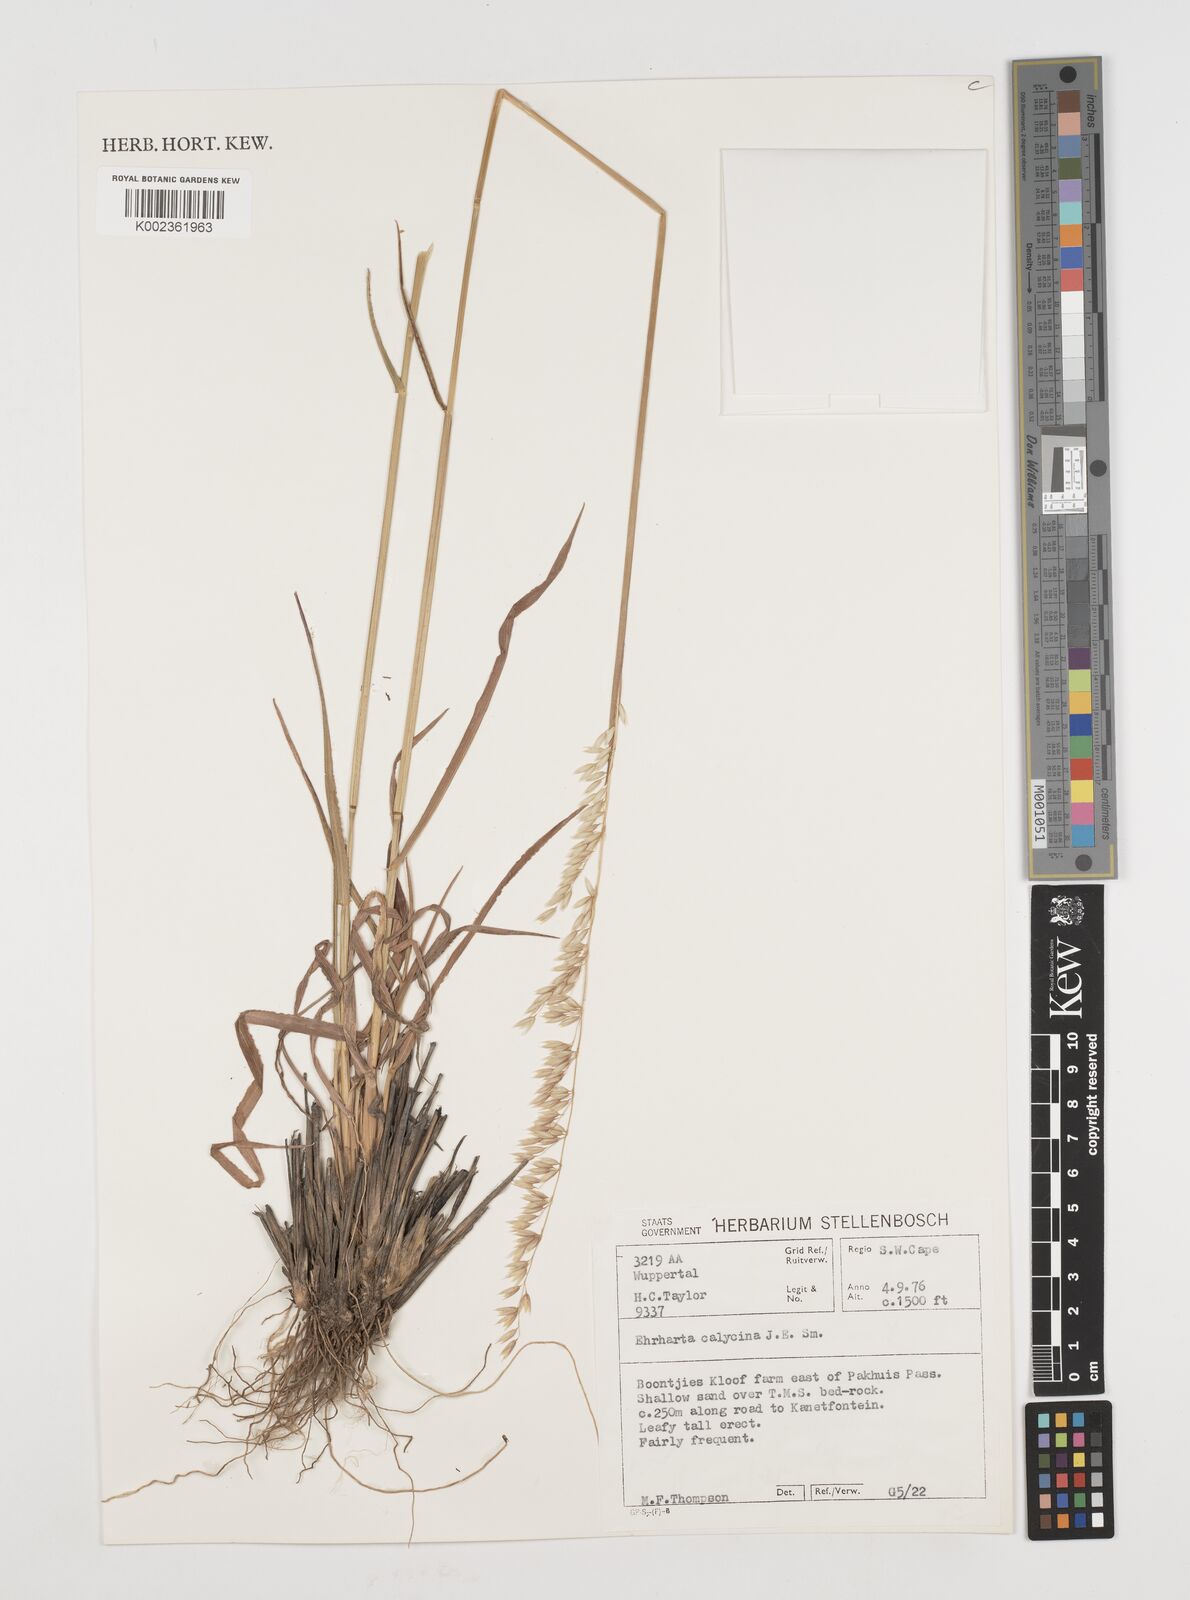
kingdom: Plantae
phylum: Tracheophyta
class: Liliopsida
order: Poales
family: Poaceae
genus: Ehrharta
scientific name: Ehrharta calycina
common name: Perennial veldtgrass
